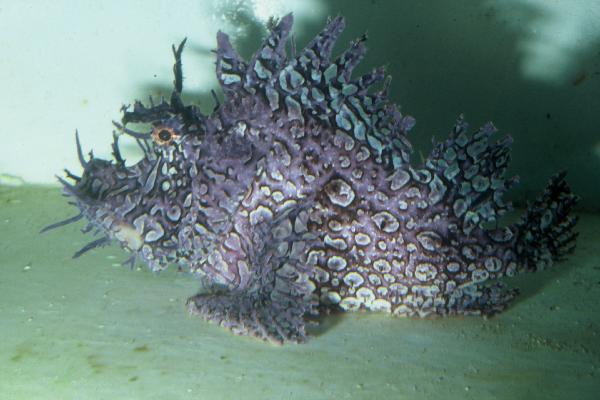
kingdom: Animalia
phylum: Chordata
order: Scorpaeniformes
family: Scorpaenidae
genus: Rhinopias
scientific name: Rhinopias frondosa
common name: Weedy scorpionfish
